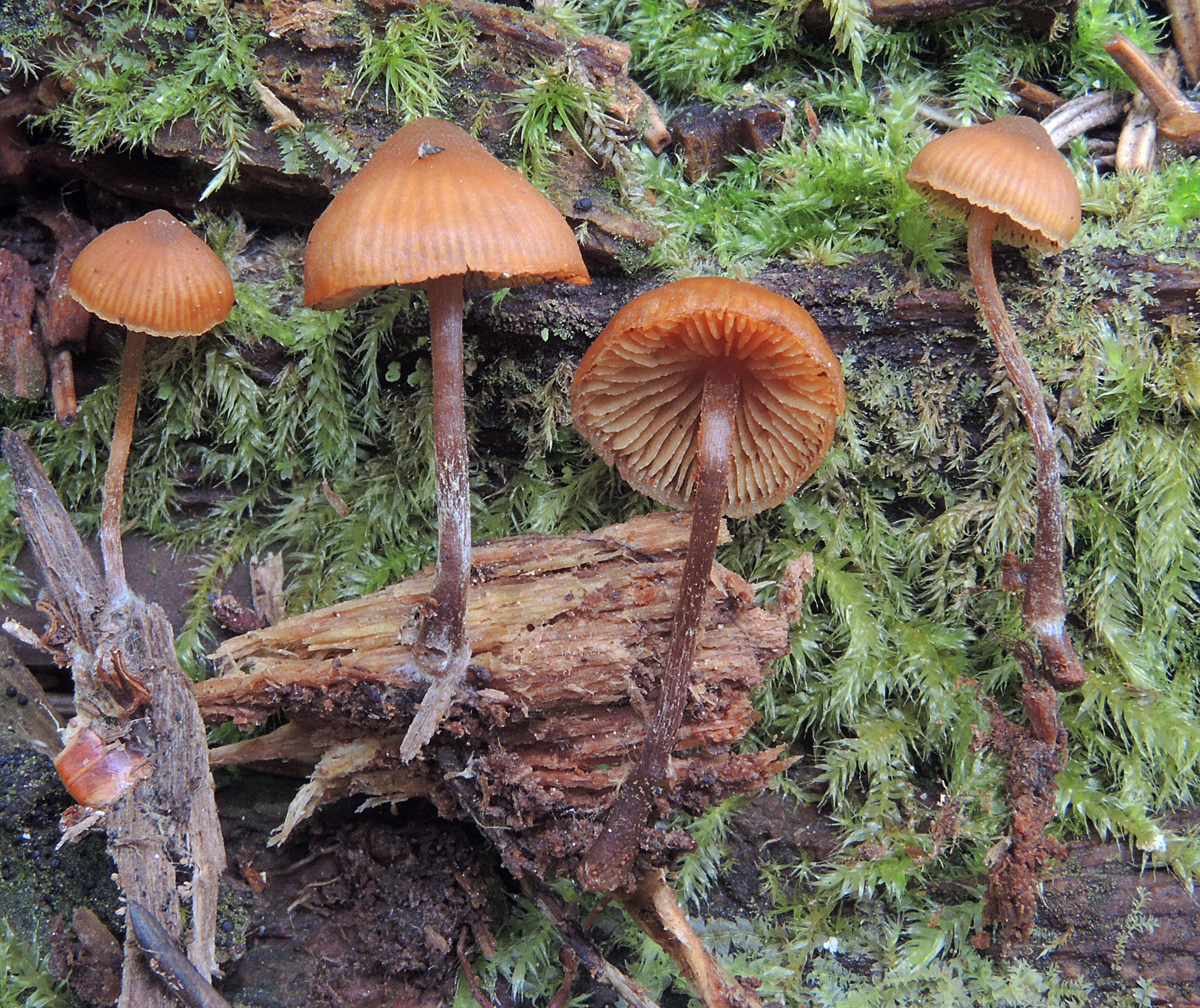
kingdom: Fungi
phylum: Basidiomycota
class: Agaricomycetes
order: Agaricales
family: Hymenogastraceae
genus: Galerina
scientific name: Galerina triscopa
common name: spidspuklet hjelmhat
